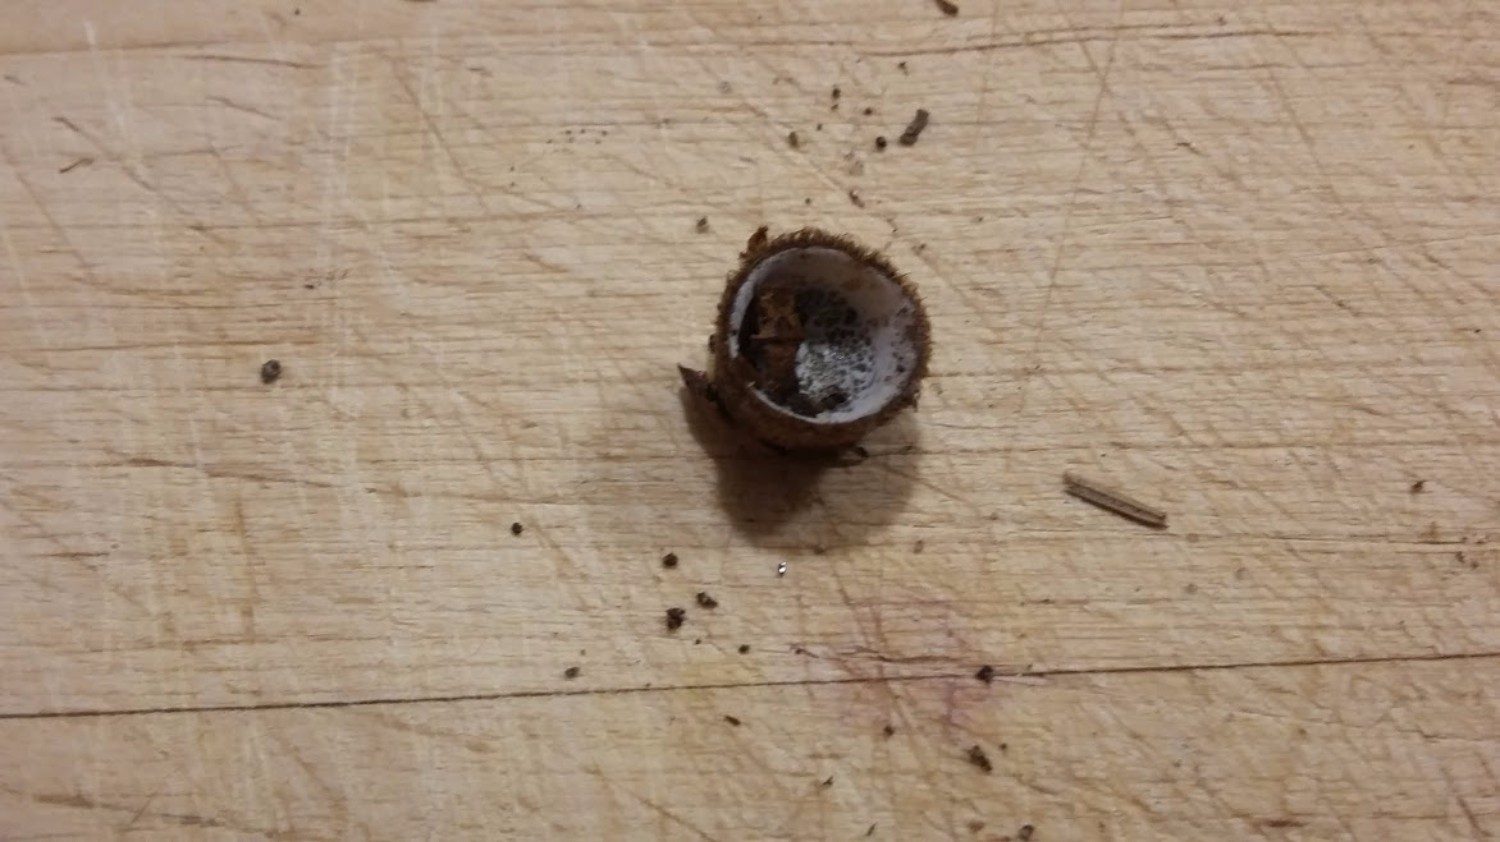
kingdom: Fungi
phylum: Ascomycota
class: Sordariomycetes
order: Hypocreales
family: Hypocreaceae
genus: Hypomyces
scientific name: Hypomyces stephanomatis
